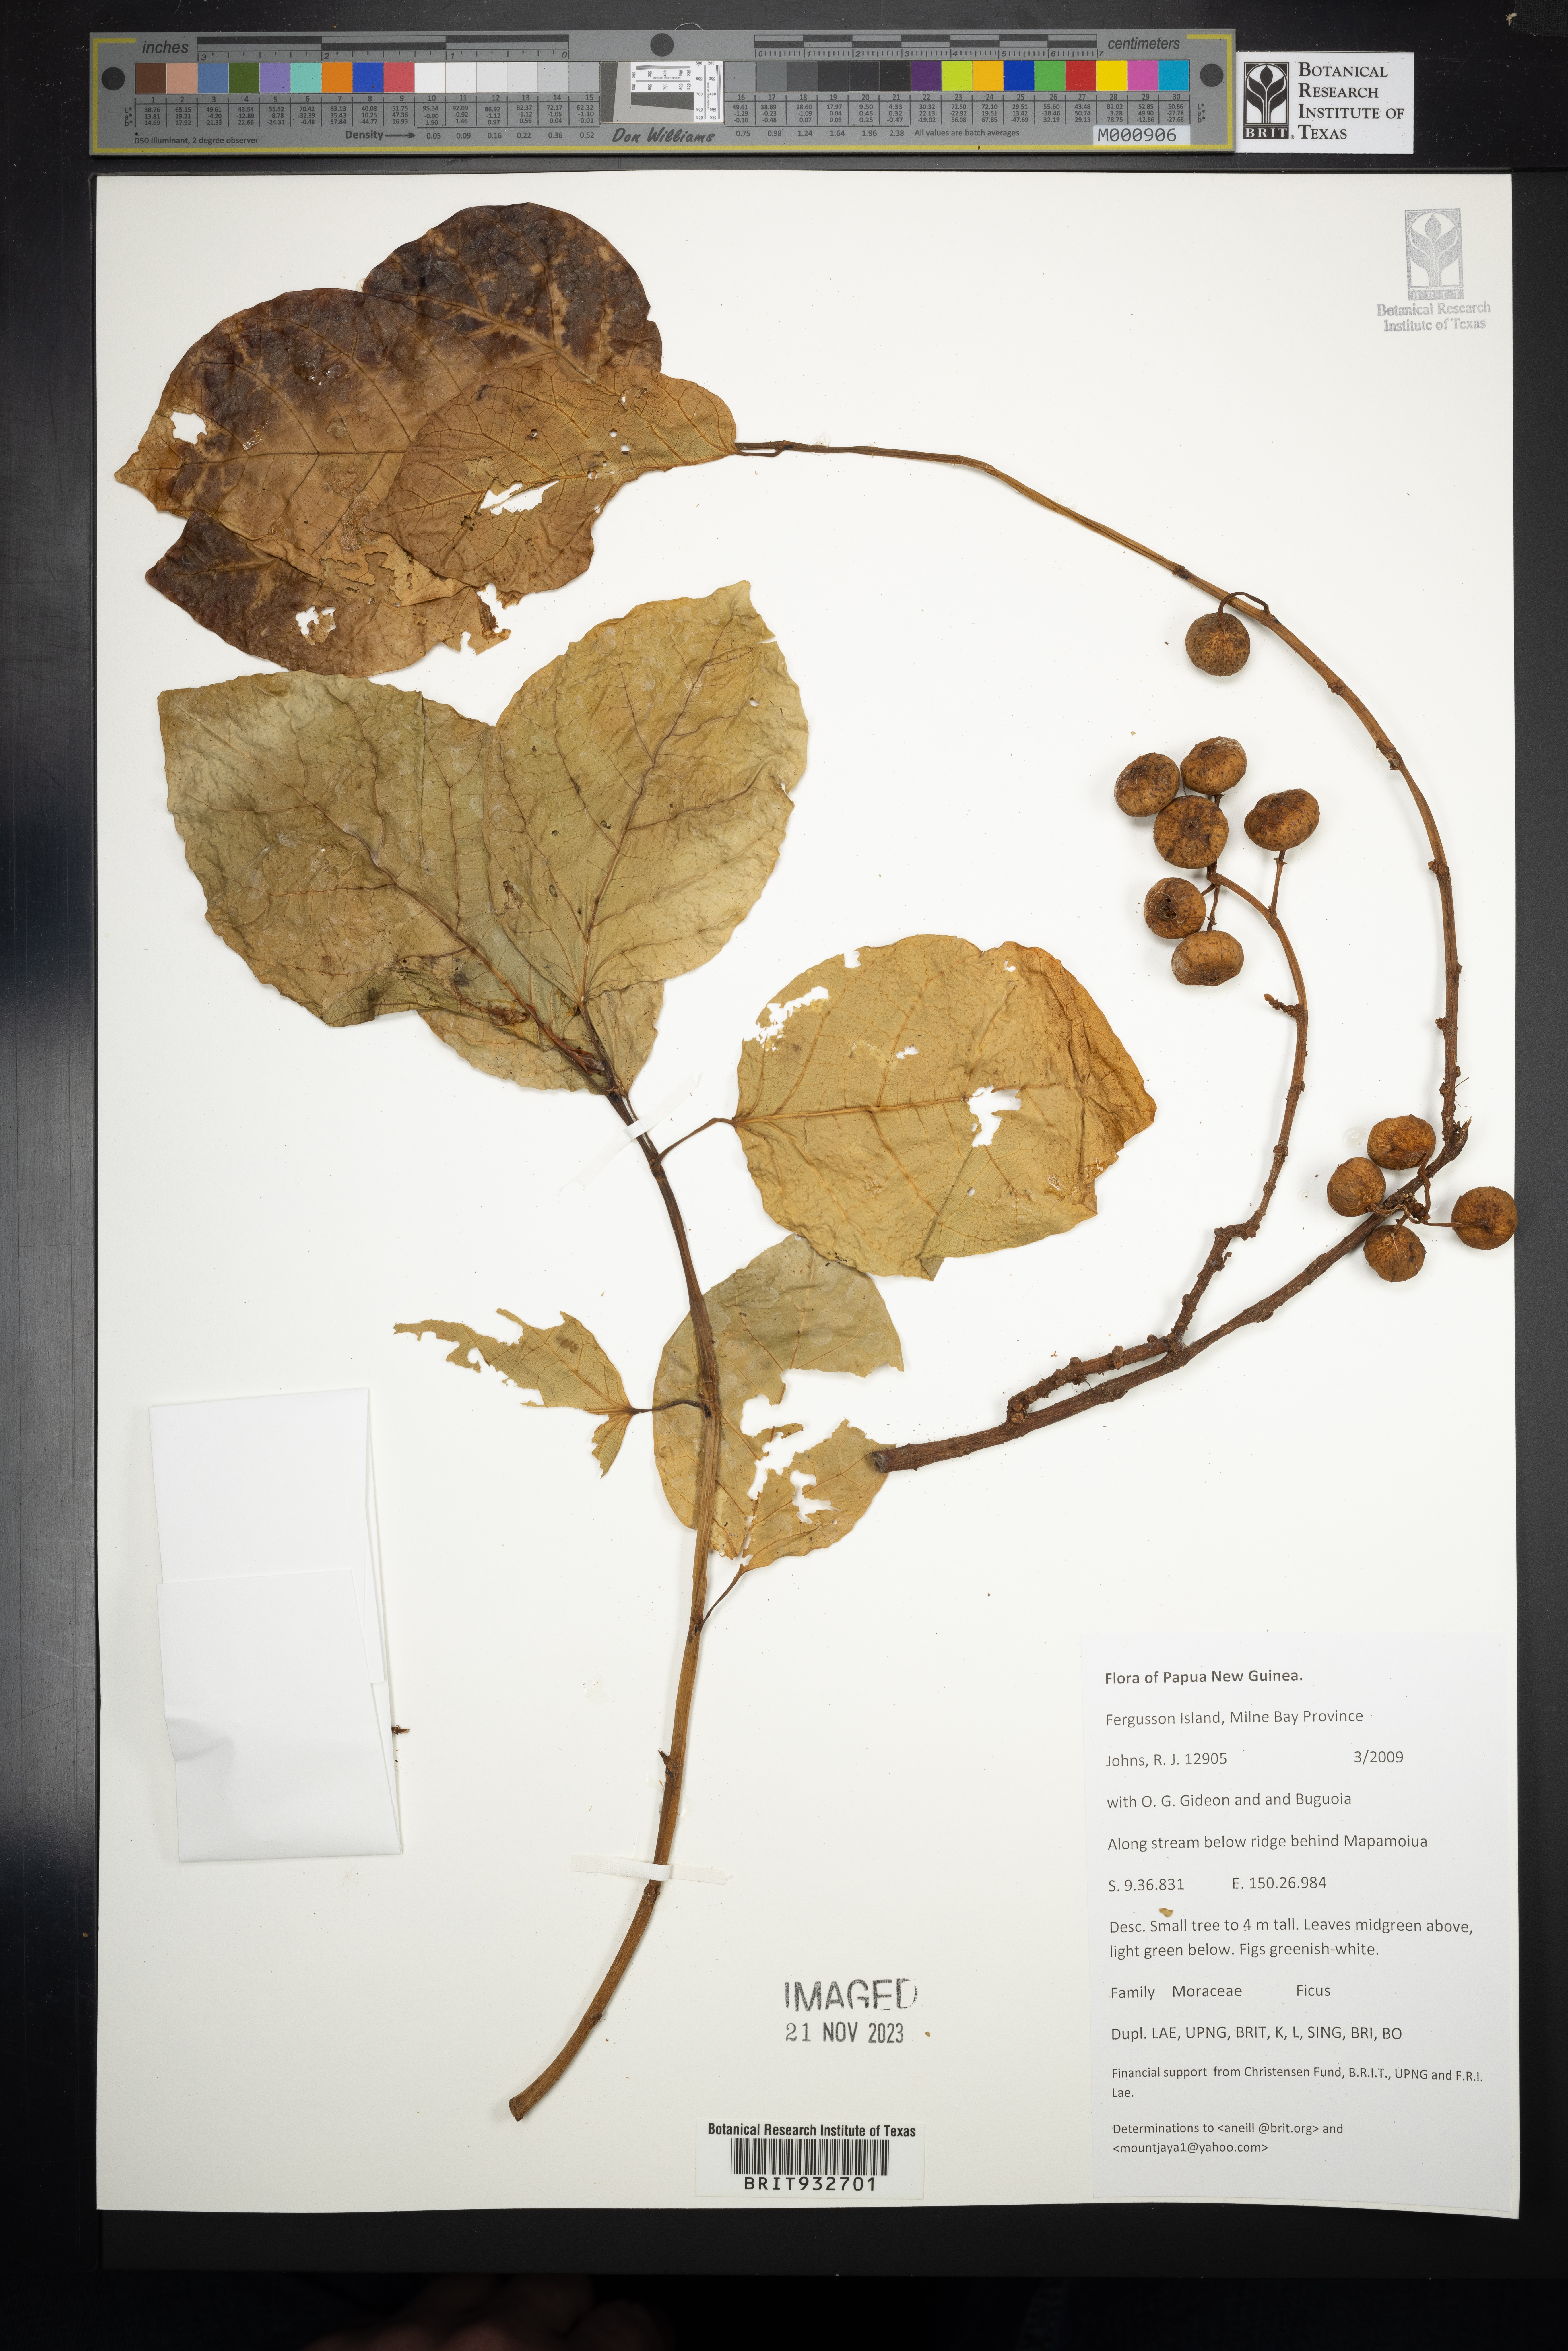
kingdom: Plantae
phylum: Tracheophyta
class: Magnoliopsida
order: Rosales
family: Moraceae
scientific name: Moraceae
